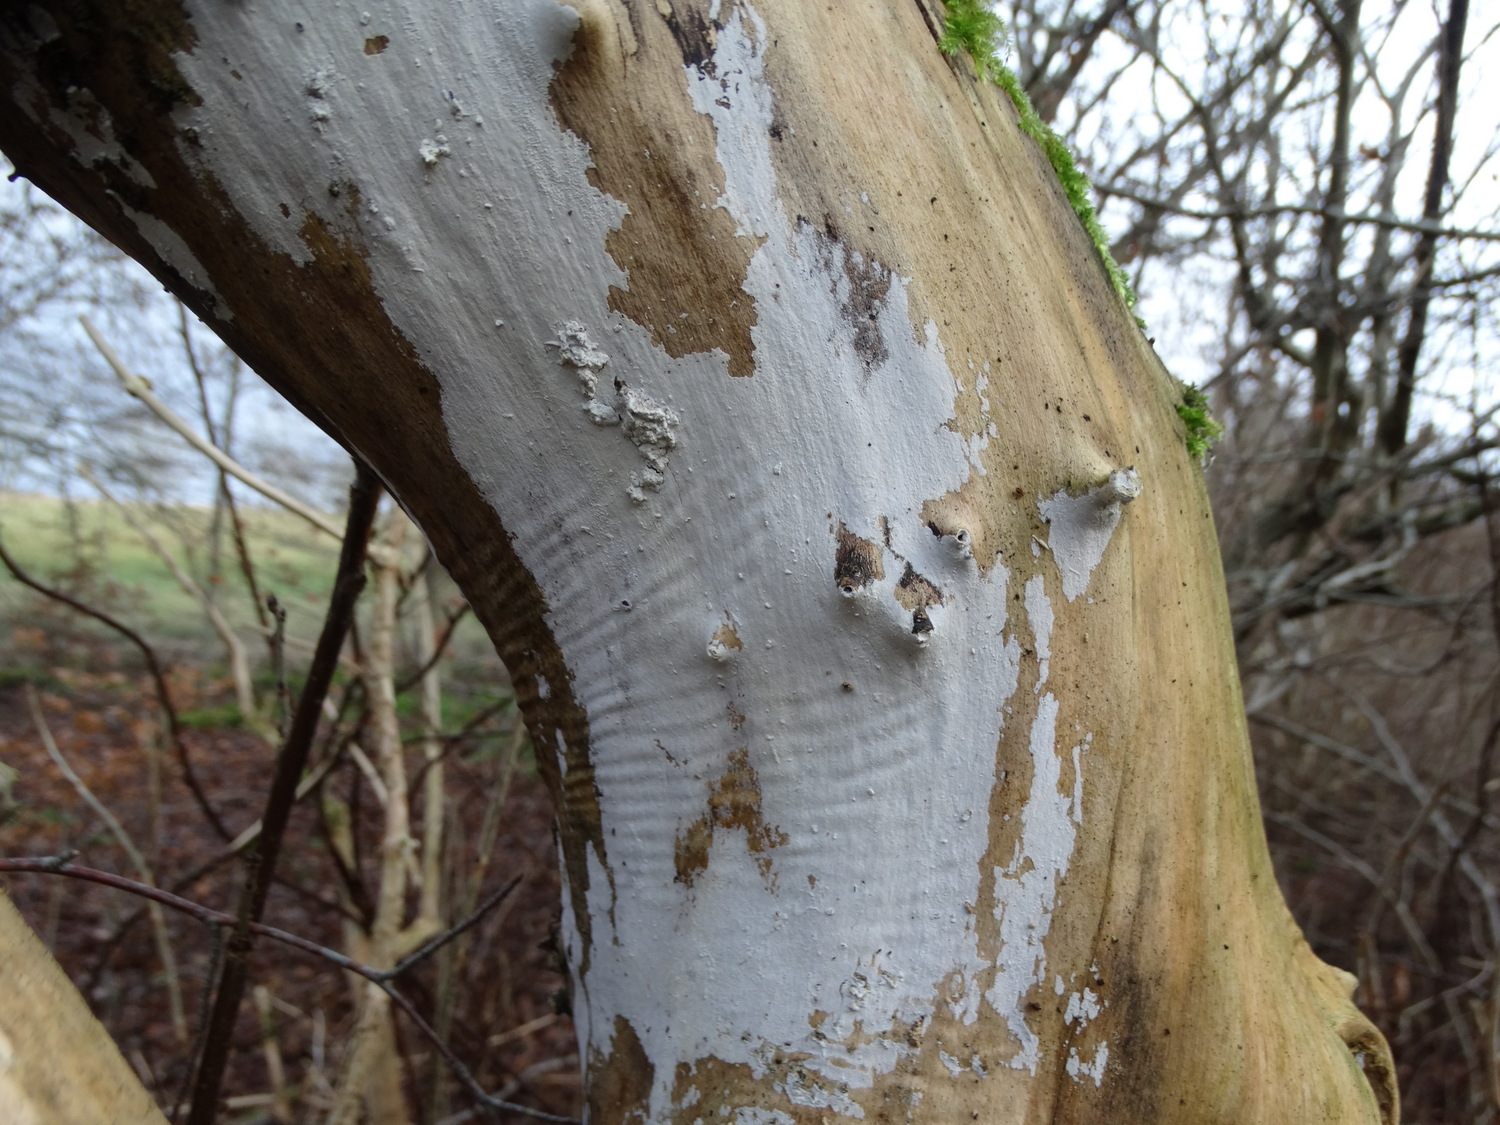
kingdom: Fungi
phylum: Basidiomycota
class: Agaricomycetes
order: Corticiales
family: Corticiaceae
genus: Lyomyces
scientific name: Lyomyces sambuci
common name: almindelig hyldehinde
